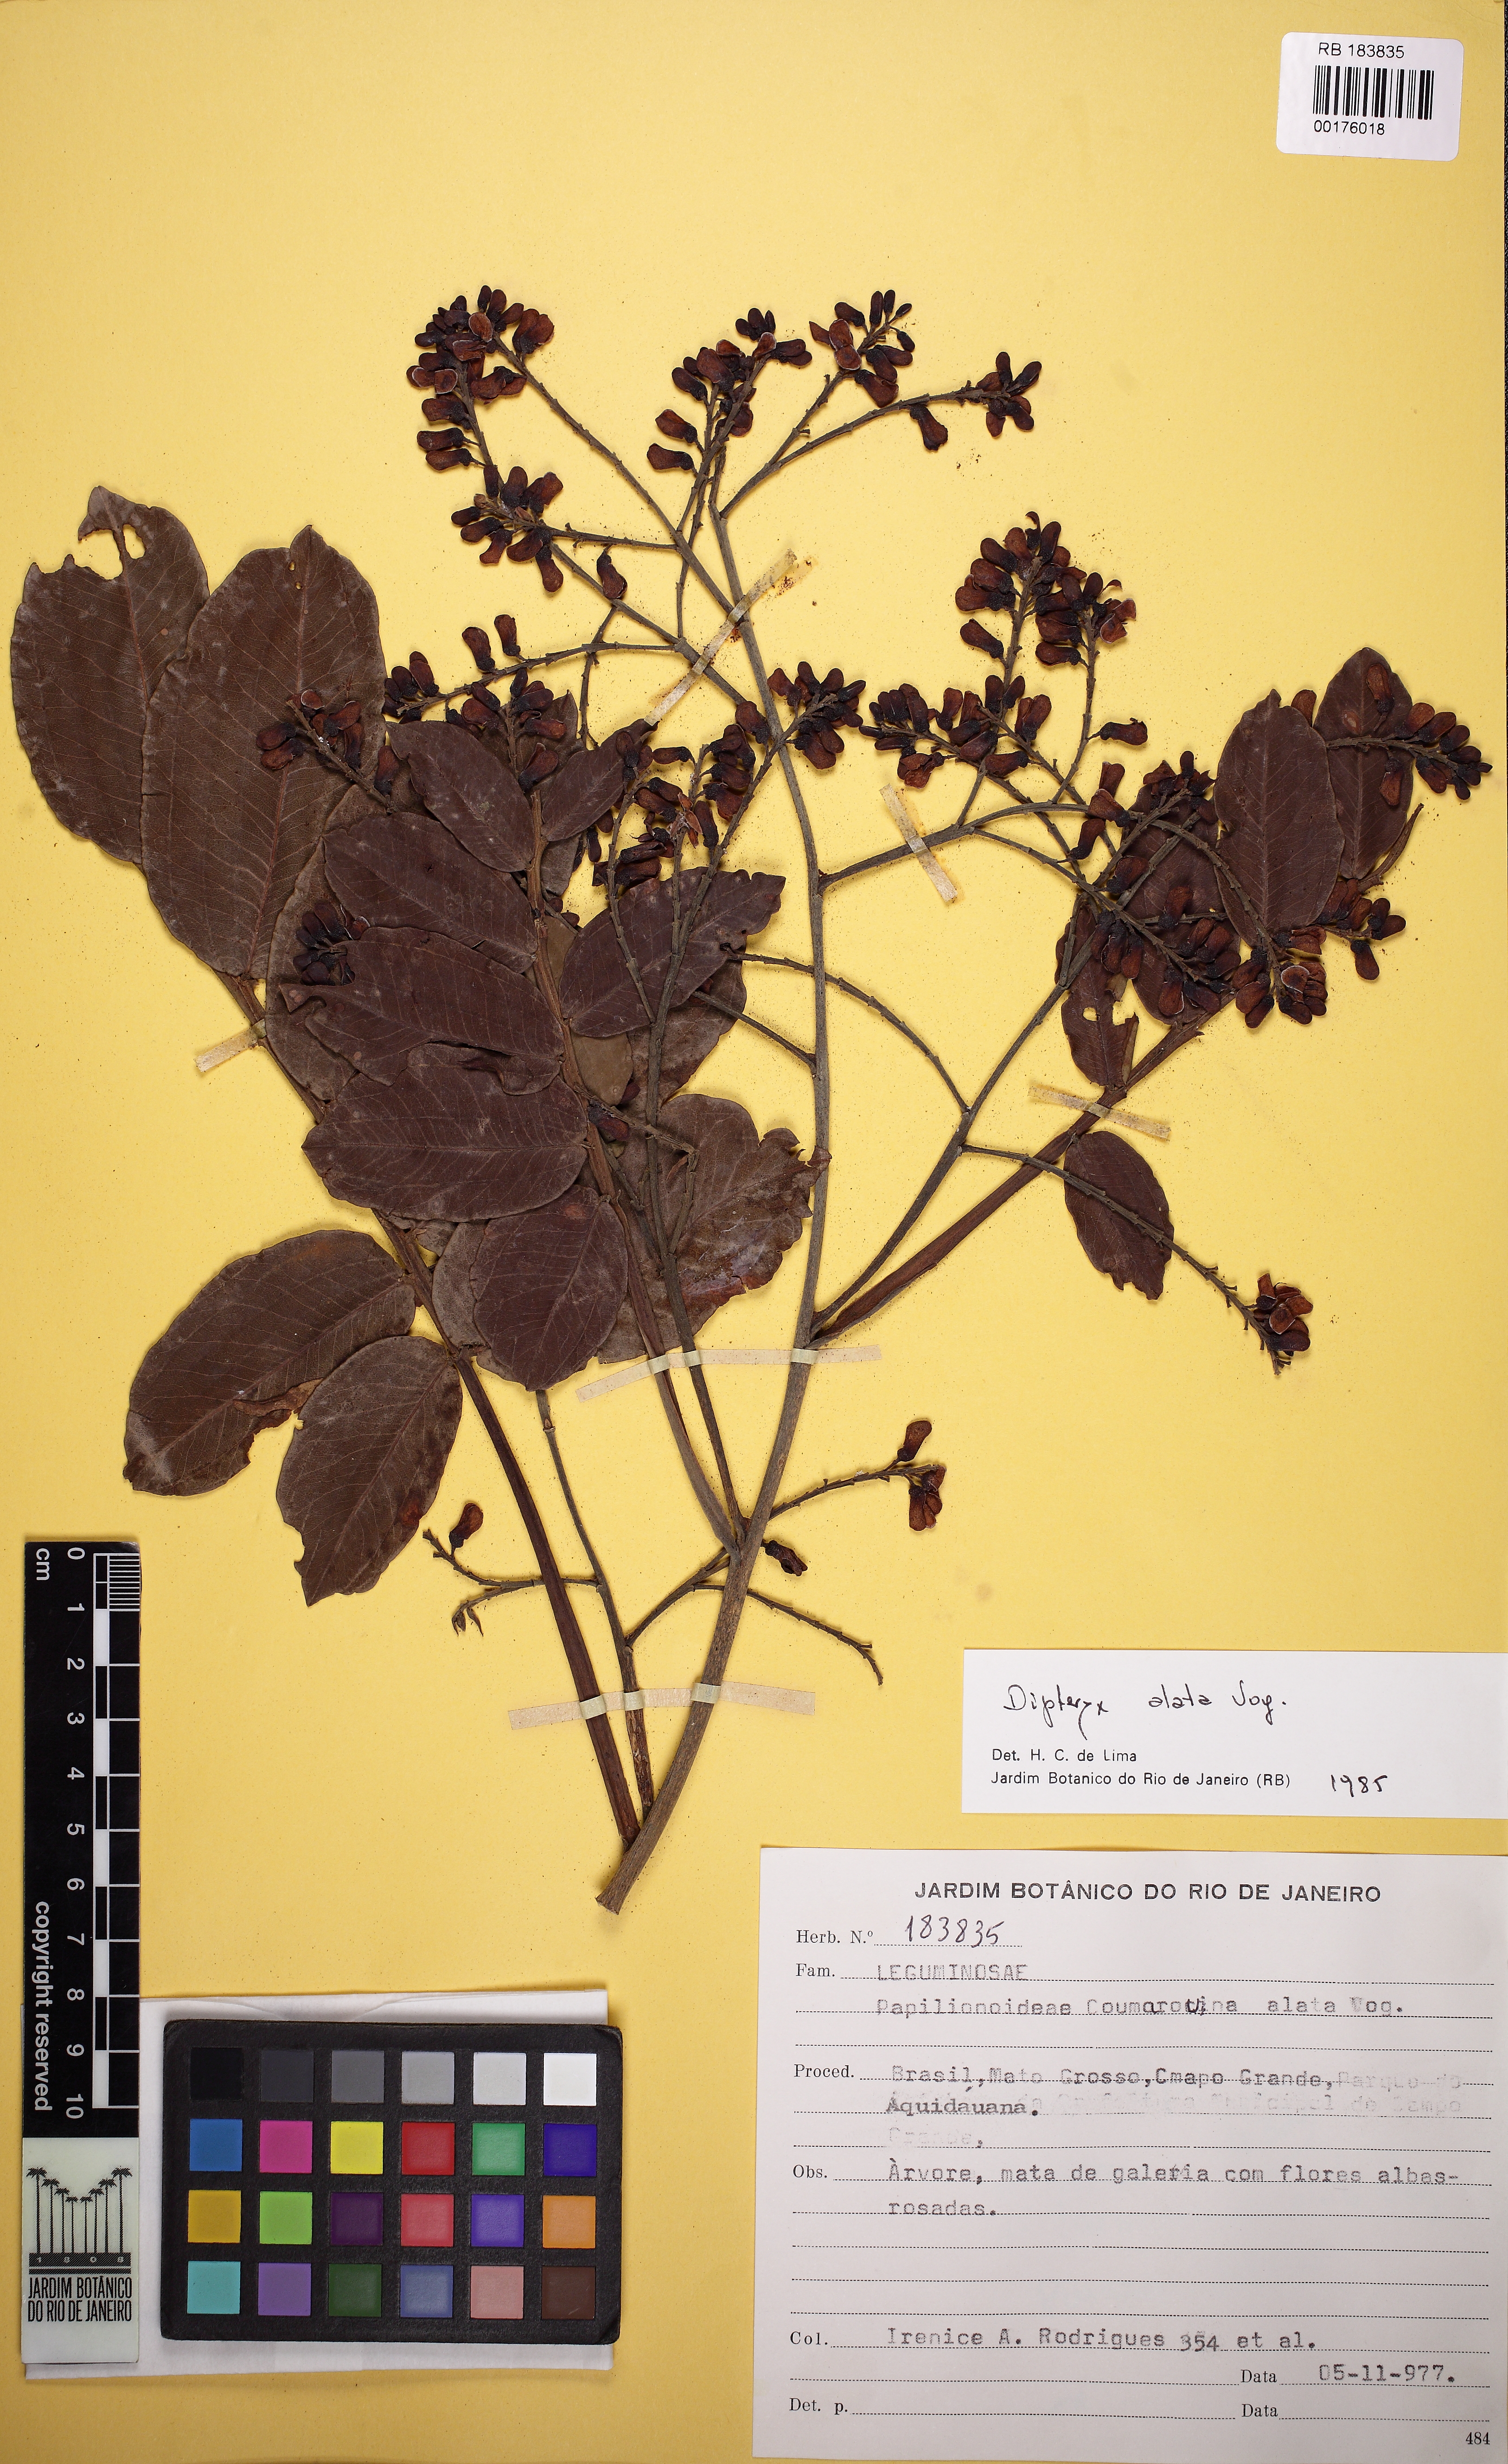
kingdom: Plantae
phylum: Tracheophyta
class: Magnoliopsida
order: Fabales
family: Fabaceae
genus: Dipteryx
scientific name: Dipteryx alata
